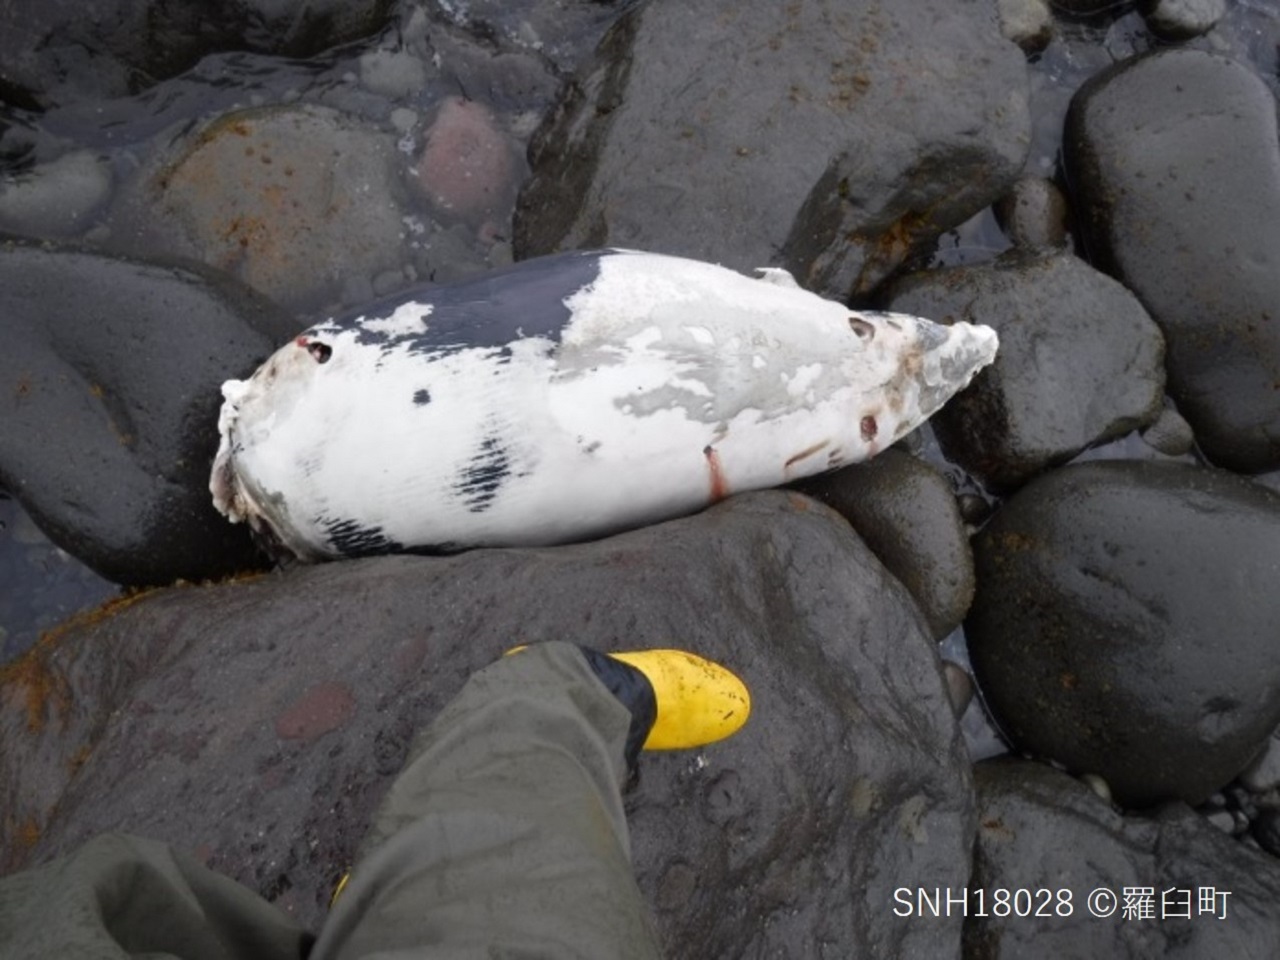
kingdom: Animalia
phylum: Chordata
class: Mammalia
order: Cetacea
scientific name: Cetacea
